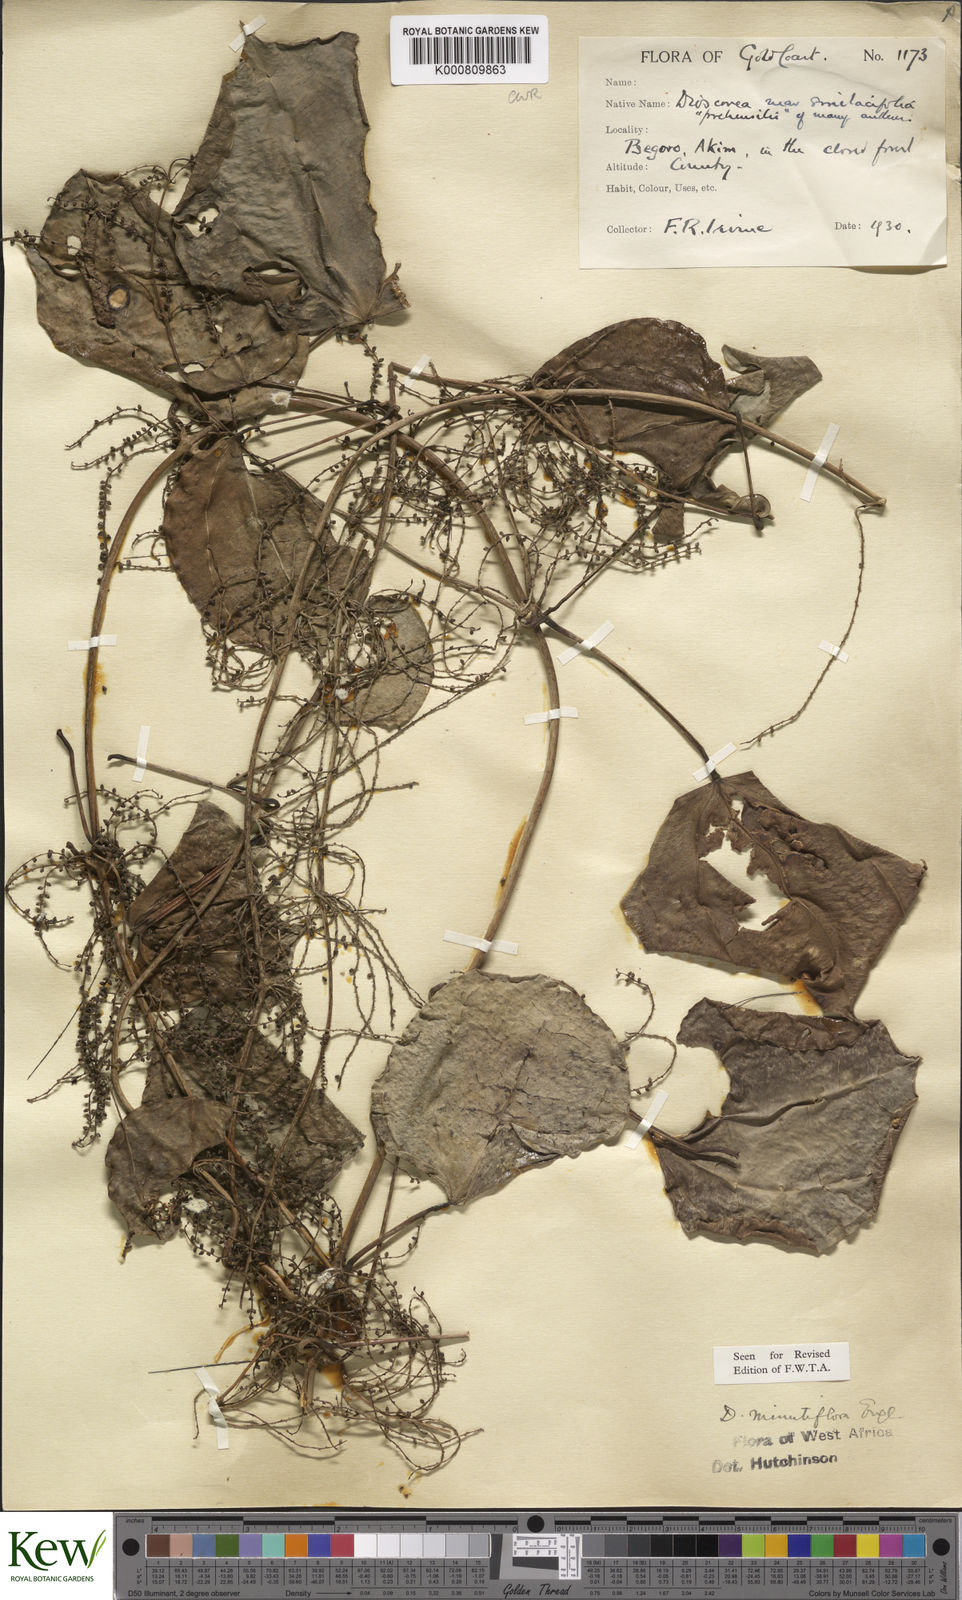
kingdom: Plantae
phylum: Tracheophyta
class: Liliopsida
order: Dioscoreales
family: Dioscoreaceae
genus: Dioscorea
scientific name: Dioscorea minutiflora
